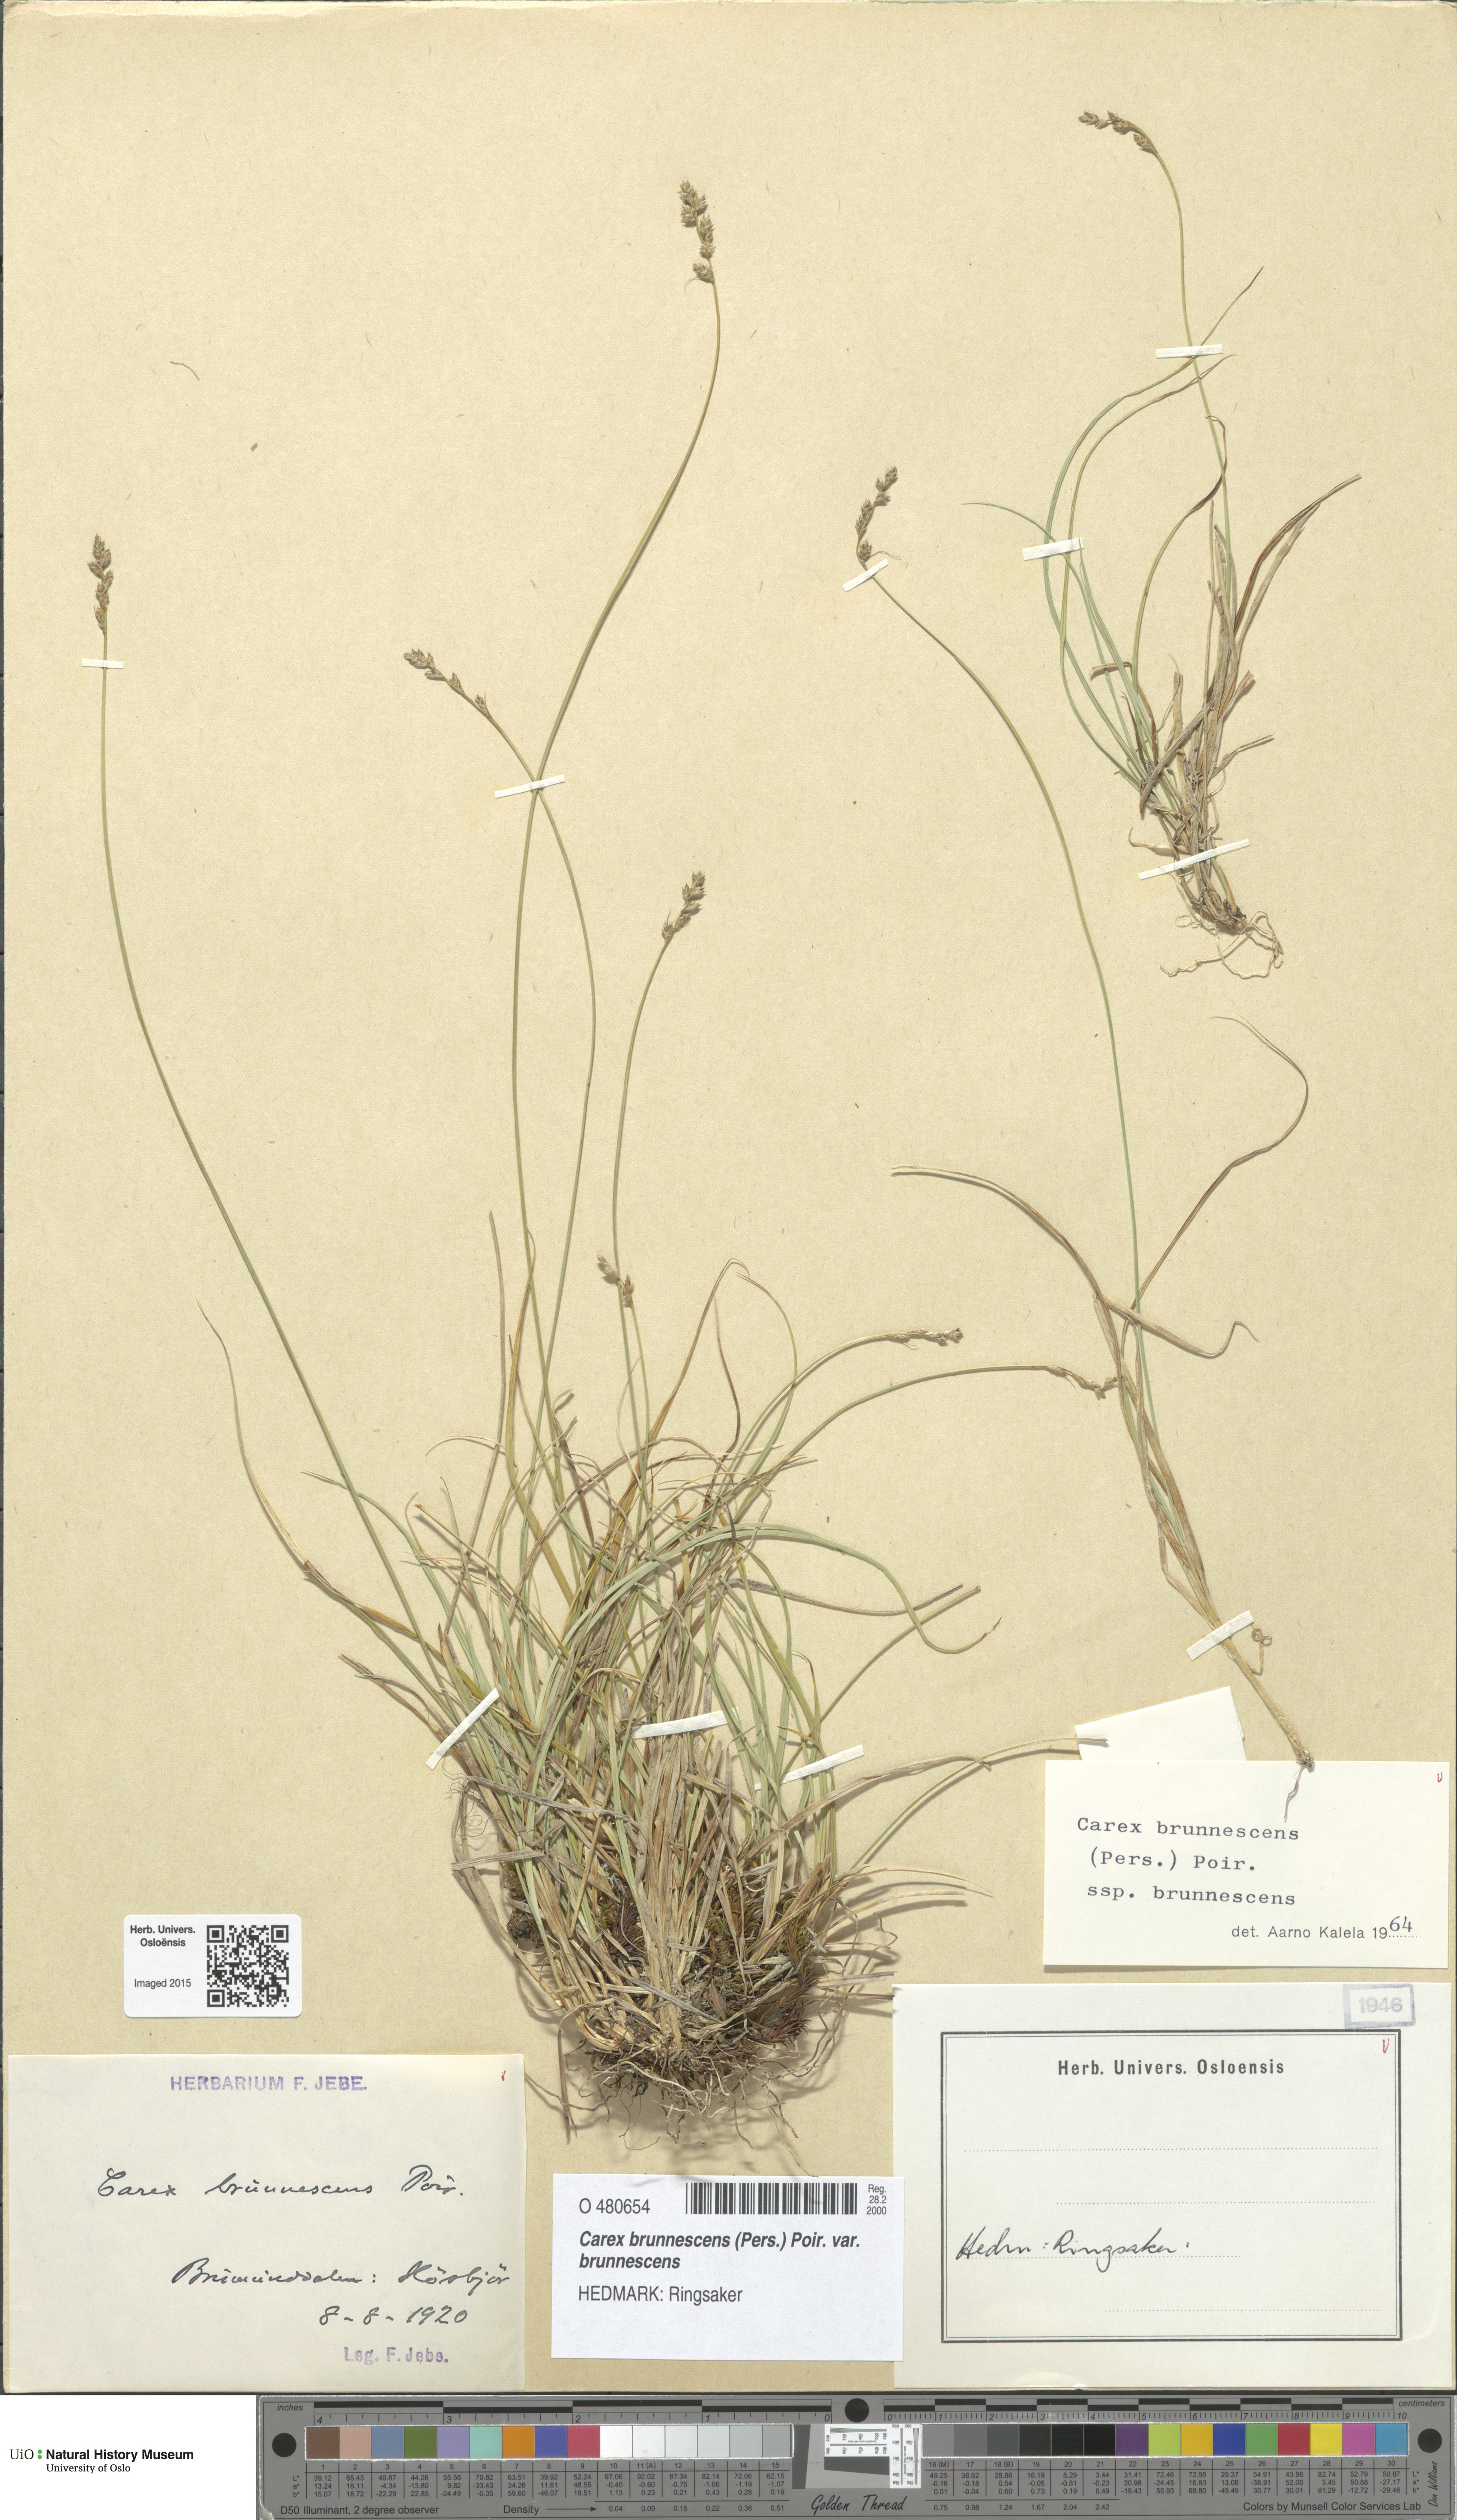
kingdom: Plantae
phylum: Tracheophyta
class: Liliopsida
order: Poales
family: Cyperaceae
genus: Carex
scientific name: Carex brunnescens
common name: Brown sedge
